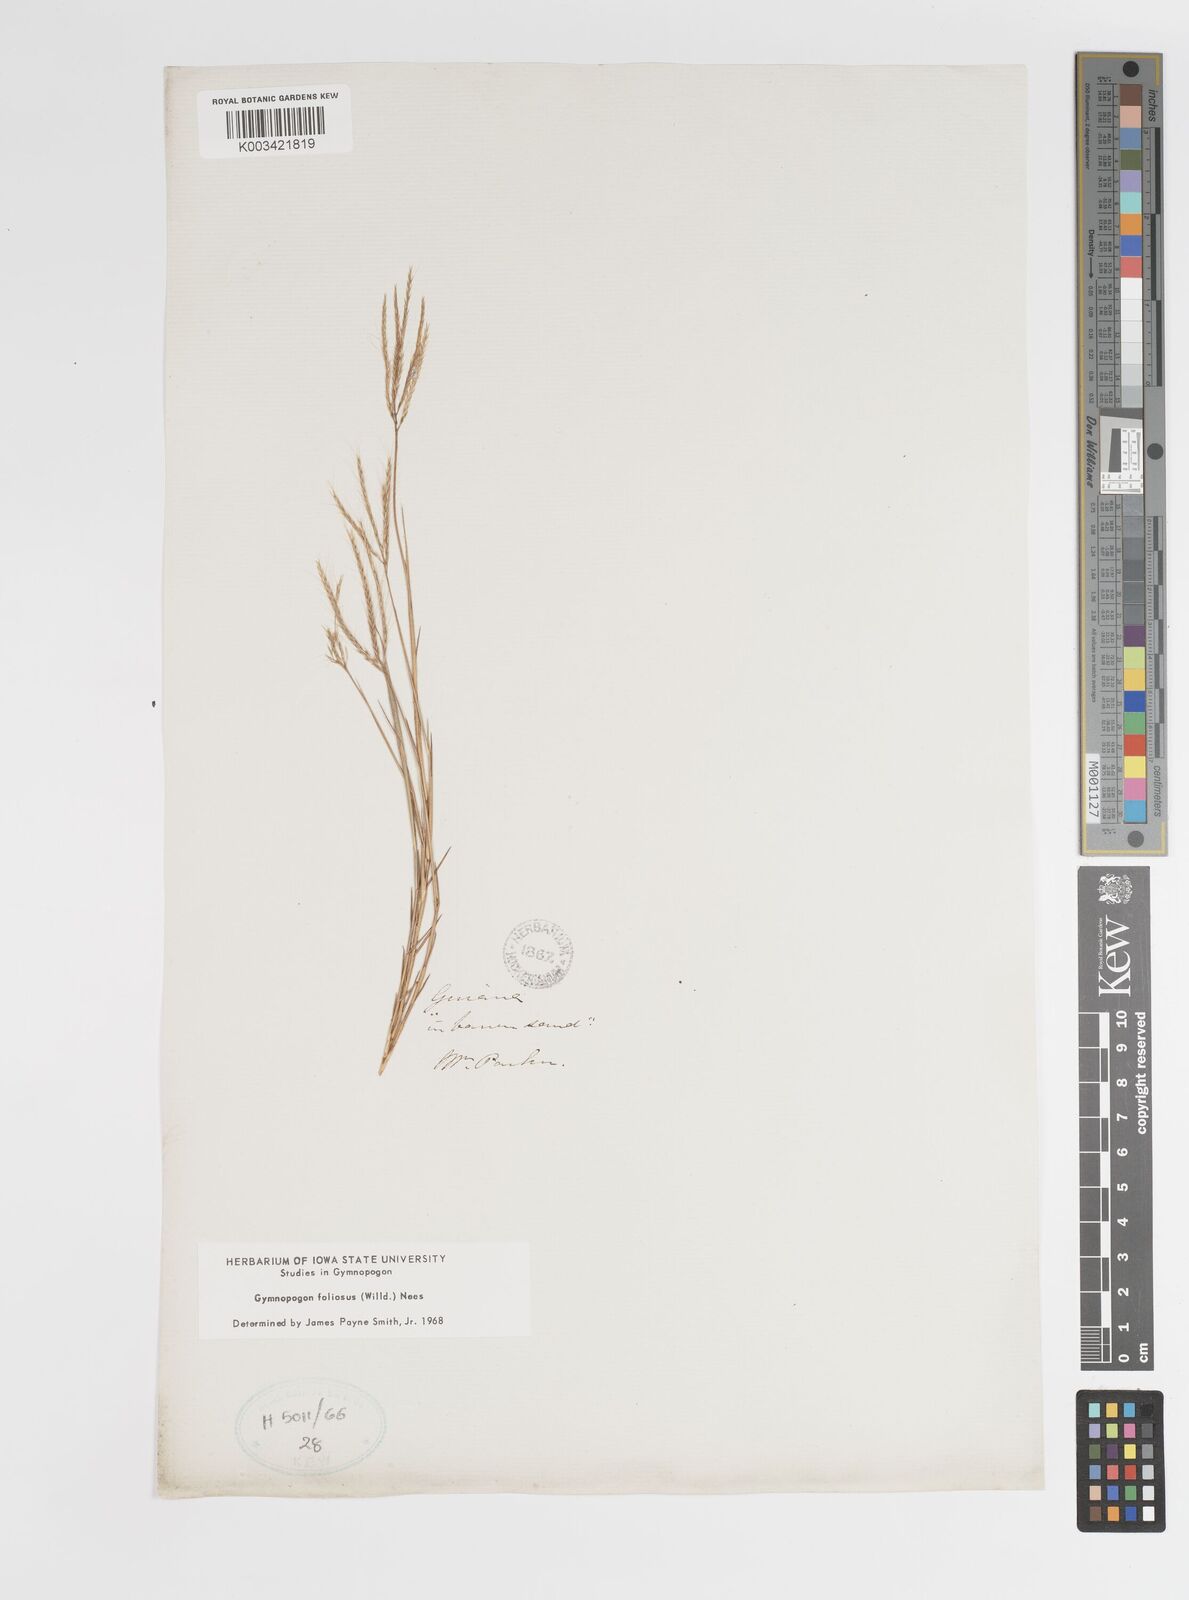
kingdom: Plantae
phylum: Tracheophyta
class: Liliopsida
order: Poales
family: Poaceae
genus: Gymnopogon
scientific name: Gymnopogon foliosus
